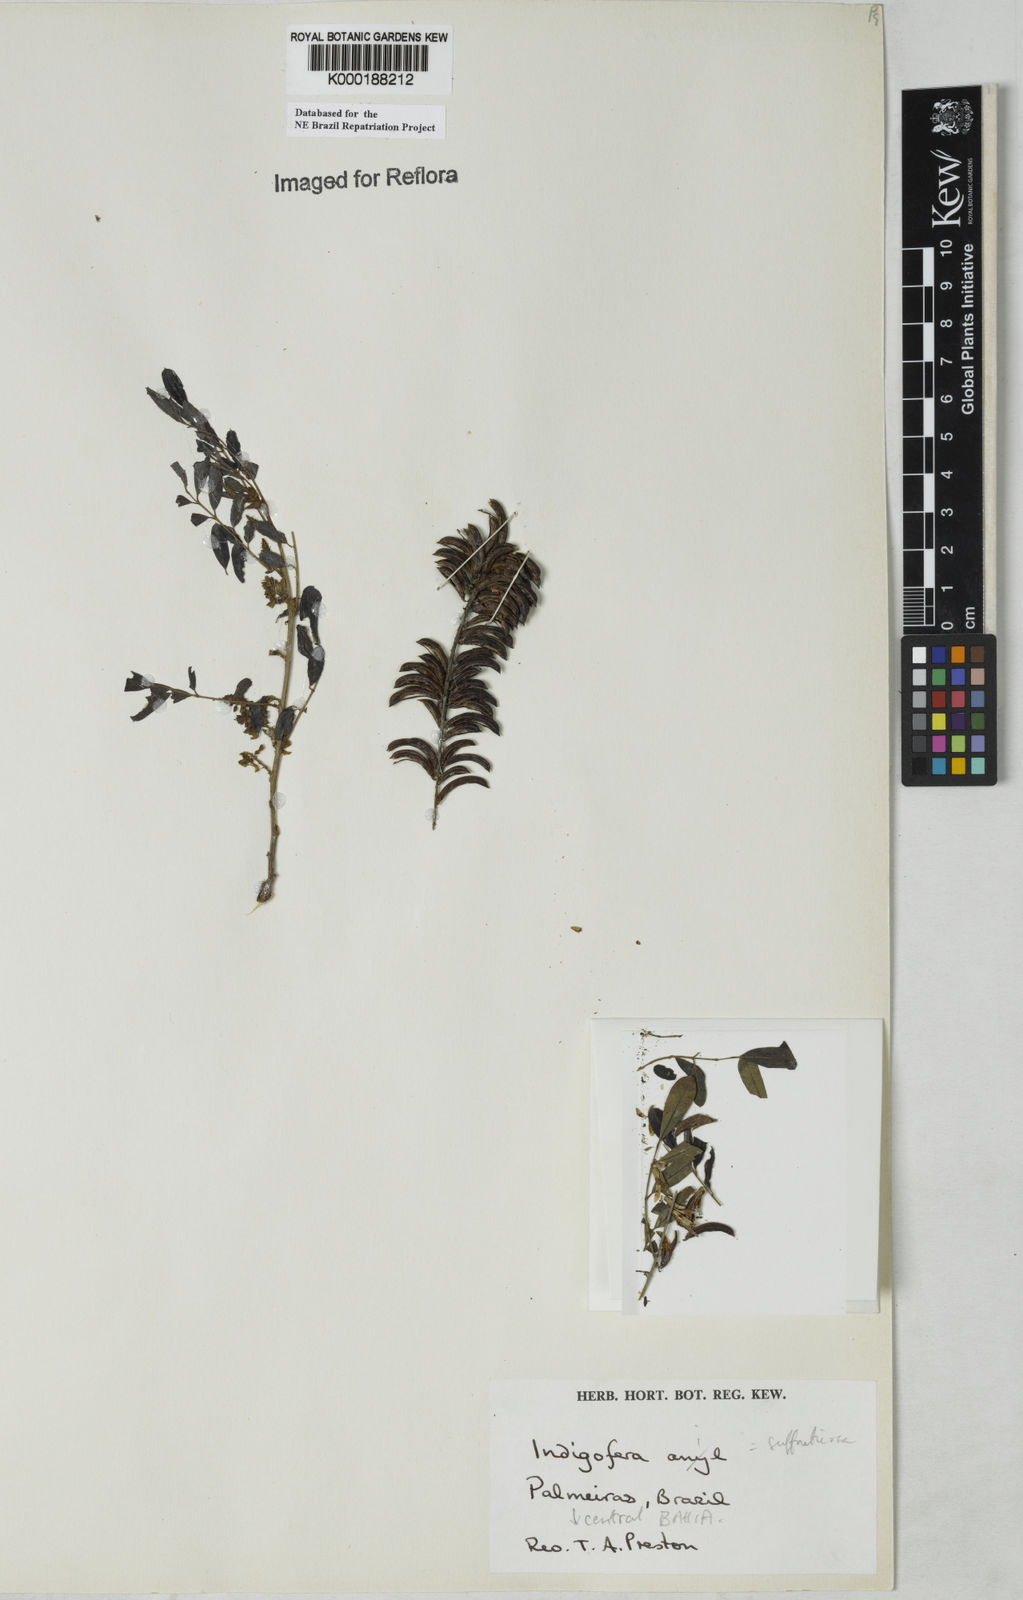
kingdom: Plantae
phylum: Tracheophyta
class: Magnoliopsida
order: Fabales
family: Fabaceae
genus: Indigofera
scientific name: Indigofera suffruticosa
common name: Anil de pasto
